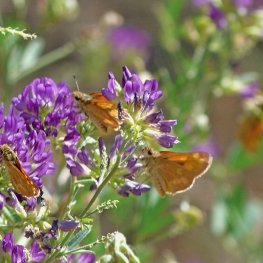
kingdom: Animalia
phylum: Arthropoda
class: Insecta
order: Lepidoptera
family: Hesperiidae
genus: Ochlodes
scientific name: Ochlodes sylvanoides
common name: Woodland Skipper
